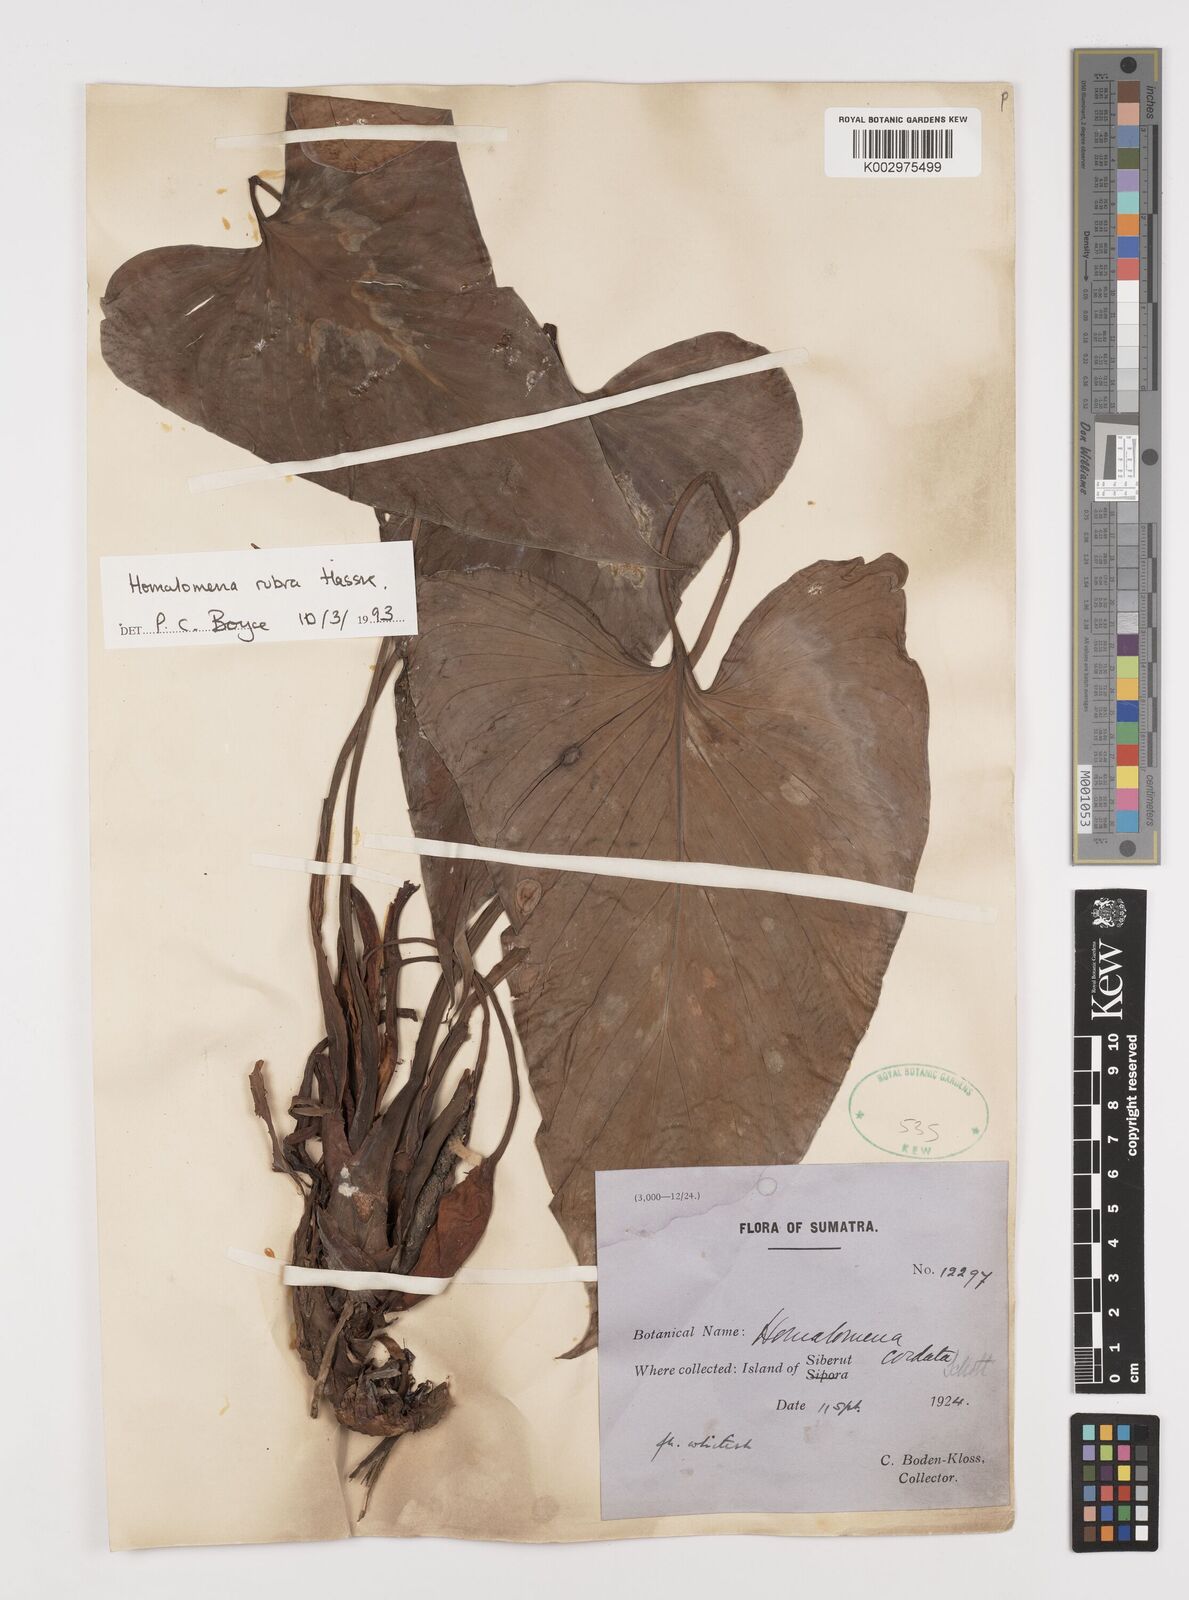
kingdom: Plantae
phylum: Tracheophyta
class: Liliopsida
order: Alismatales
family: Araceae
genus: Homalomena
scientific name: Homalomena pendula
